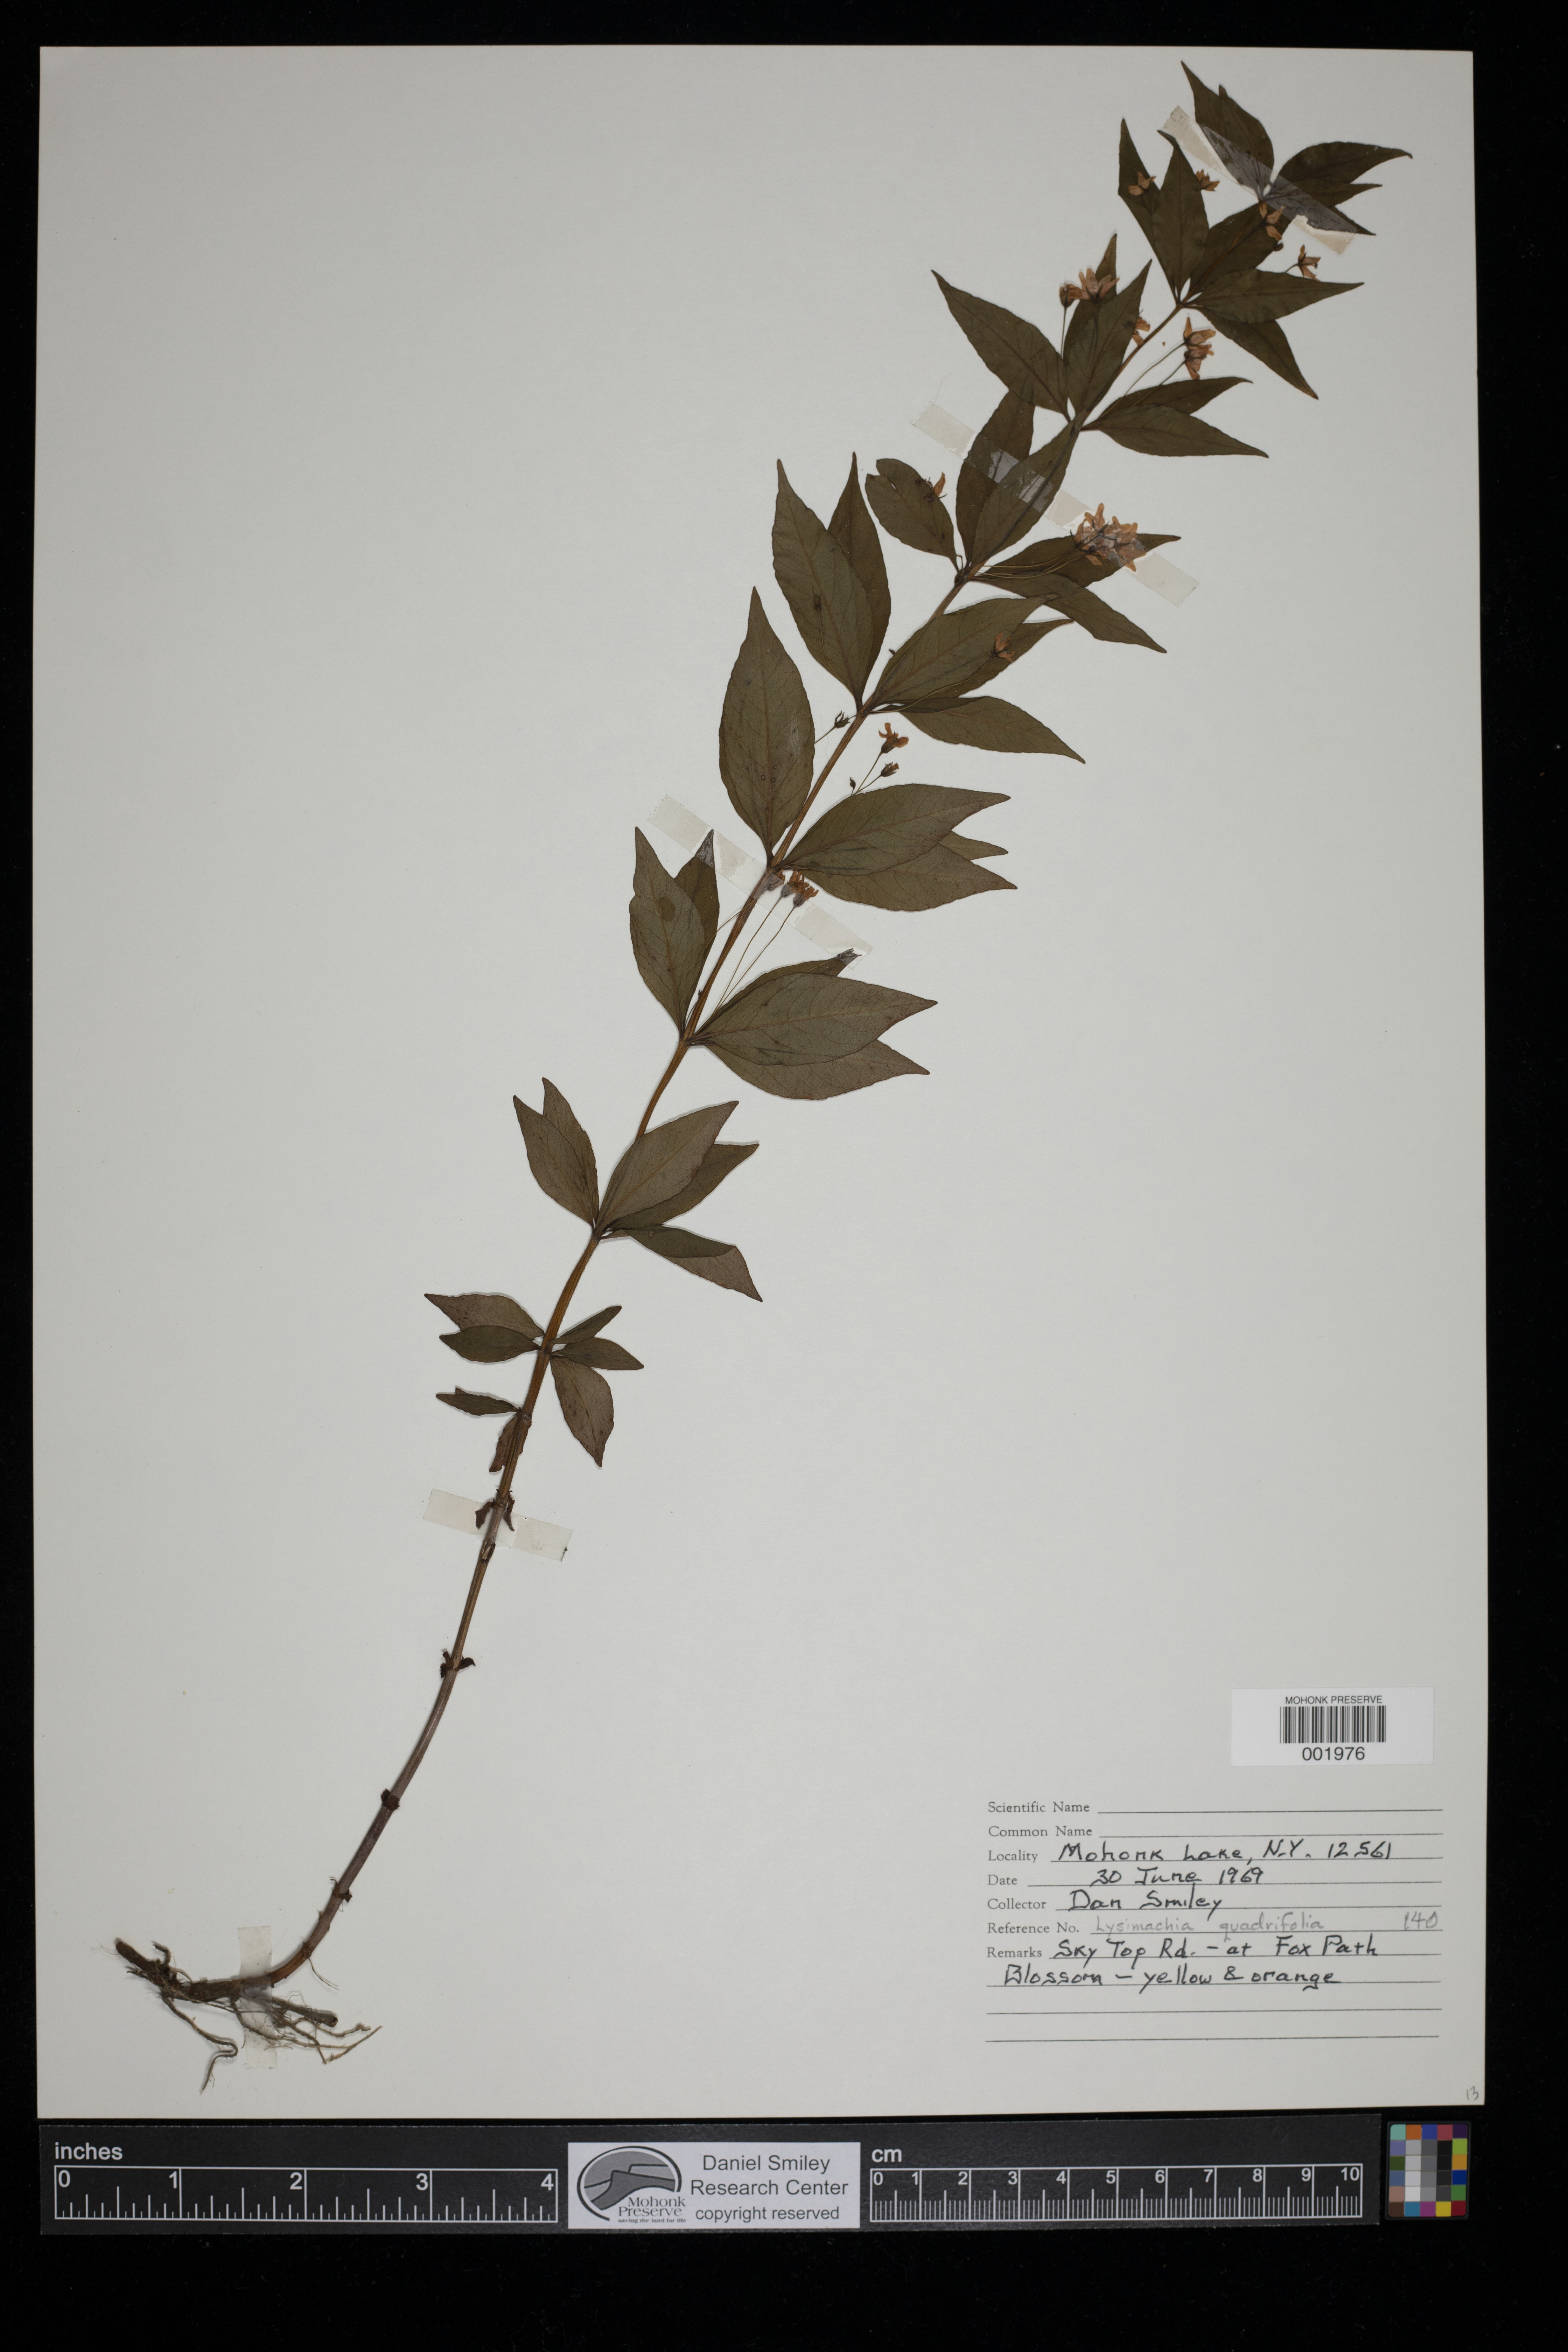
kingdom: Plantae
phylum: Tracheophyta
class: Magnoliopsida
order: Ericales
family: Primulaceae
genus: Lysimachia
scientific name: Lysimachia quadrifolia
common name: Whorled loosestrife
